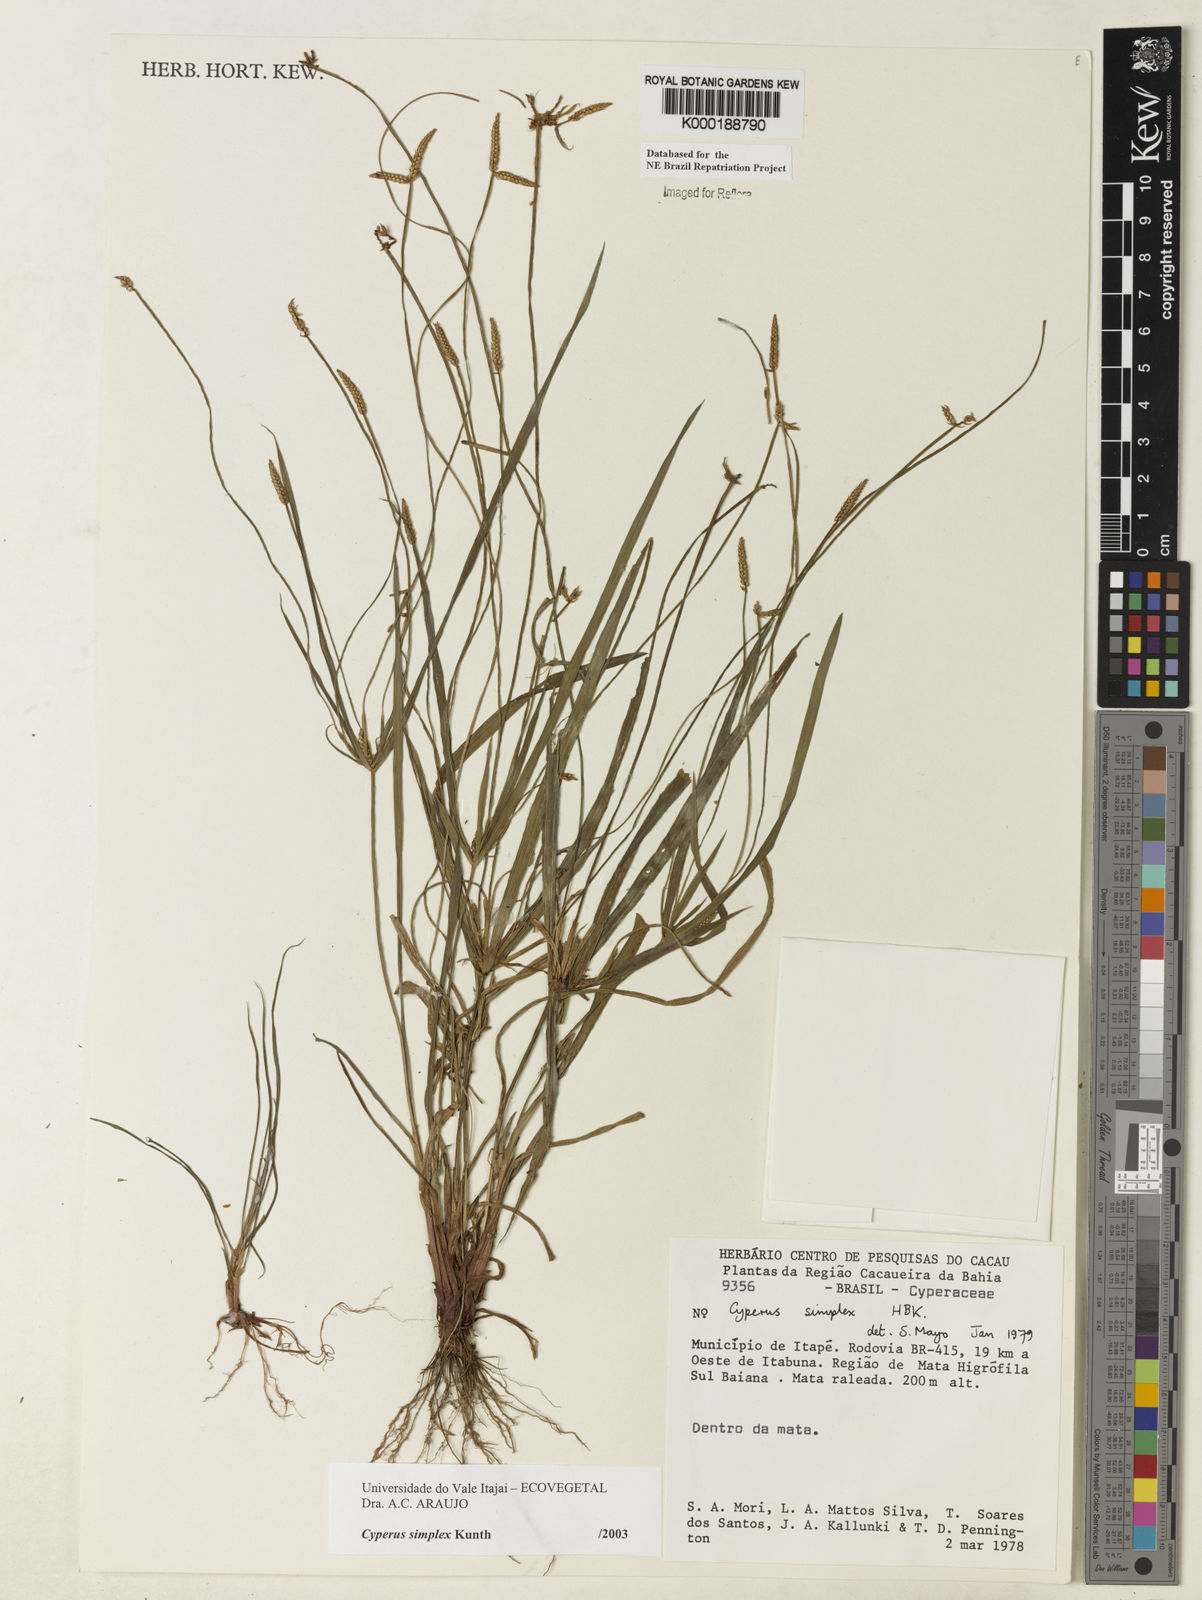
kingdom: Plantae
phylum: Tracheophyta
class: Liliopsida
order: Poales
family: Cyperaceae
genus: Cyperus
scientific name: Cyperus simplex
